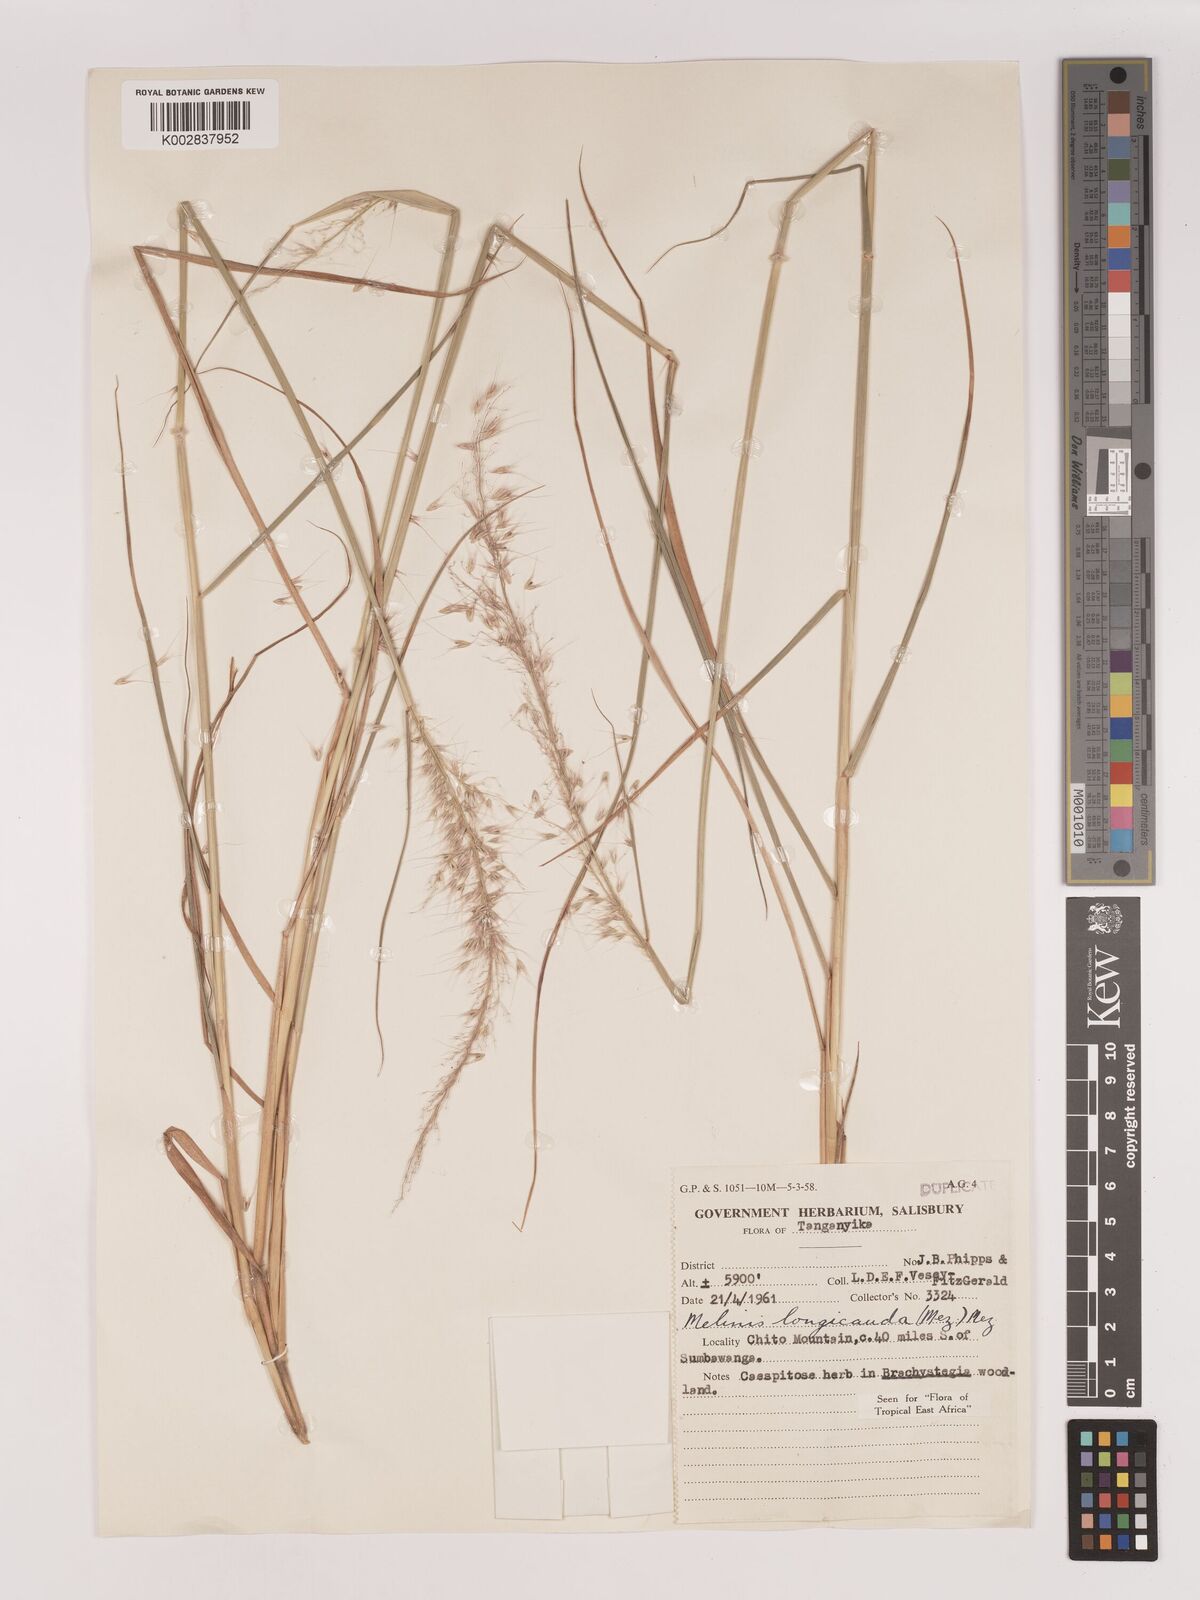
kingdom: Plantae
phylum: Tracheophyta
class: Liliopsida
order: Poales
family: Poaceae
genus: Melinis
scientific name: Melinis ambigua
